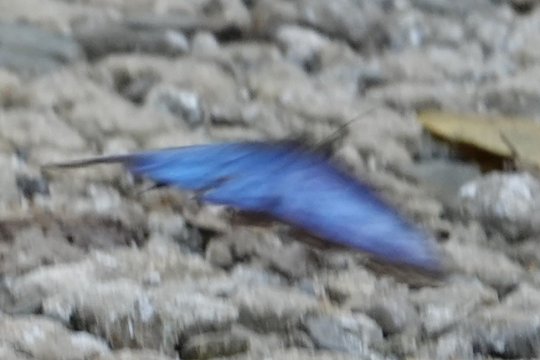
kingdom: Animalia
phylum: Arthropoda
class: Insecta
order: Lepidoptera
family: Nymphalidae
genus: Morpho
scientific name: Morpho menelaus
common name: Menelaus Morpho
